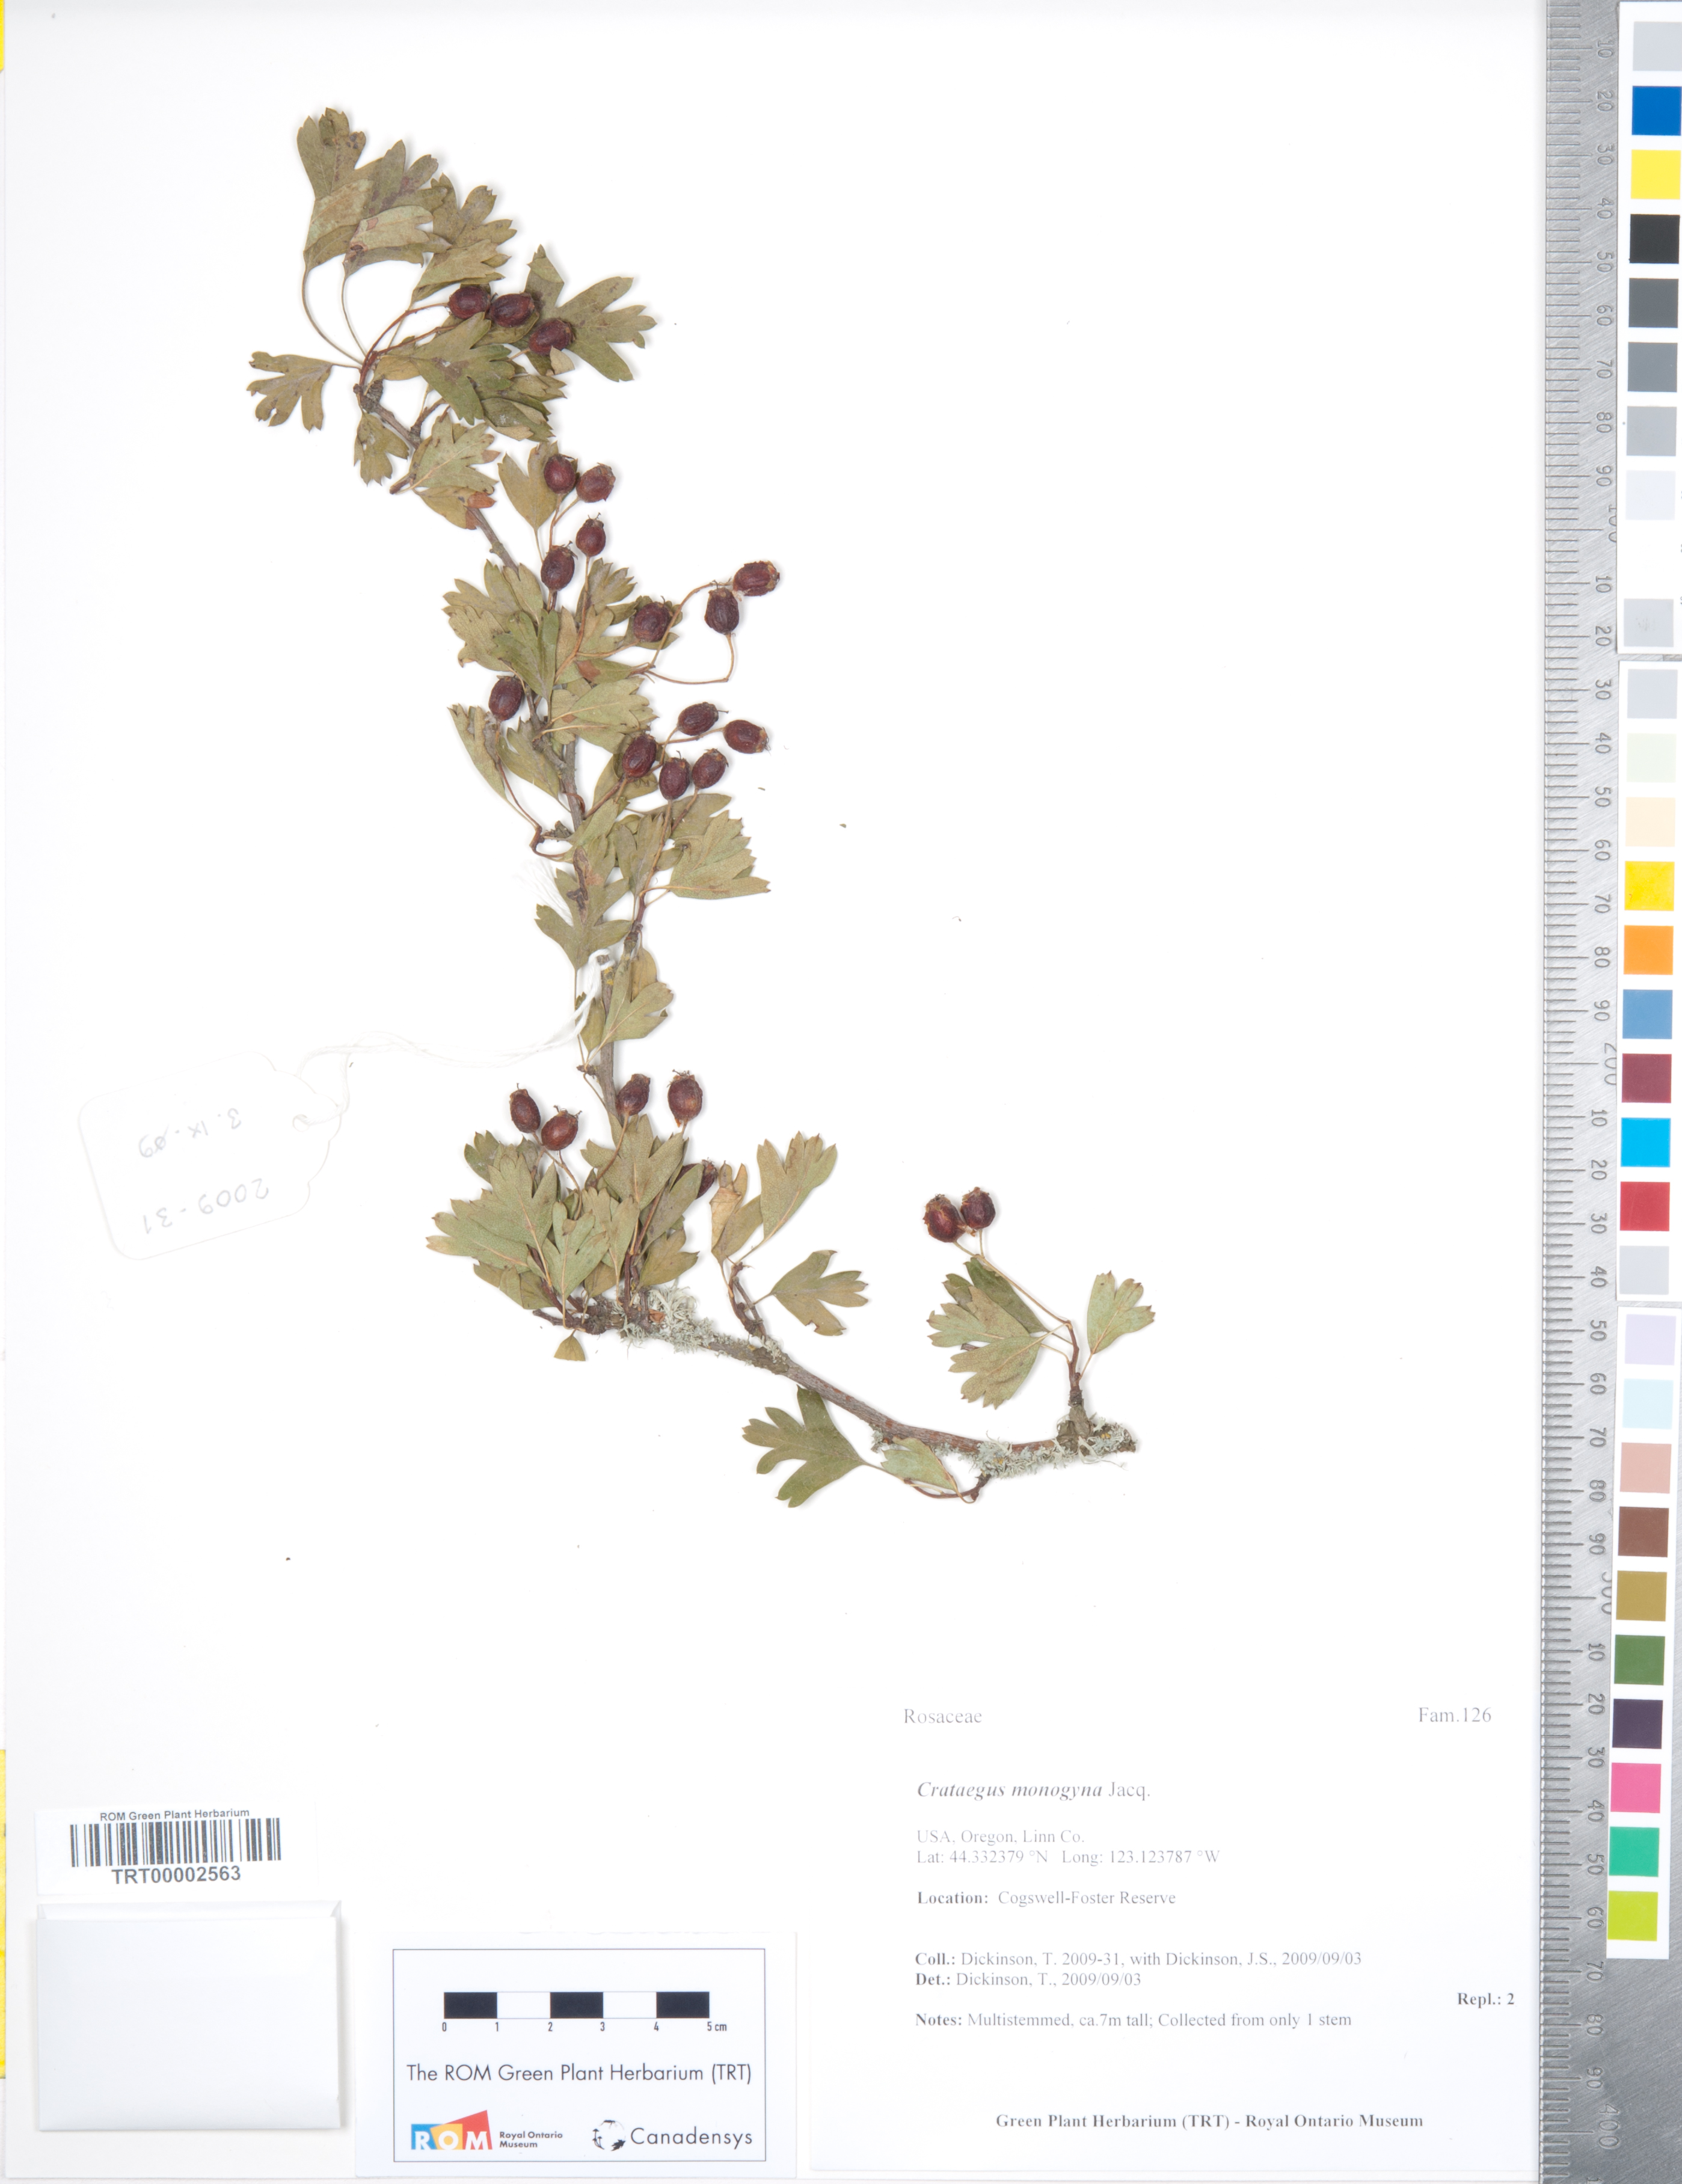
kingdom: Plantae
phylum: Tracheophyta
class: Magnoliopsida
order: Rosales
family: Rosaceae
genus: Crataegus
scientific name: Crataegus monogyna
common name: Hawthorn
